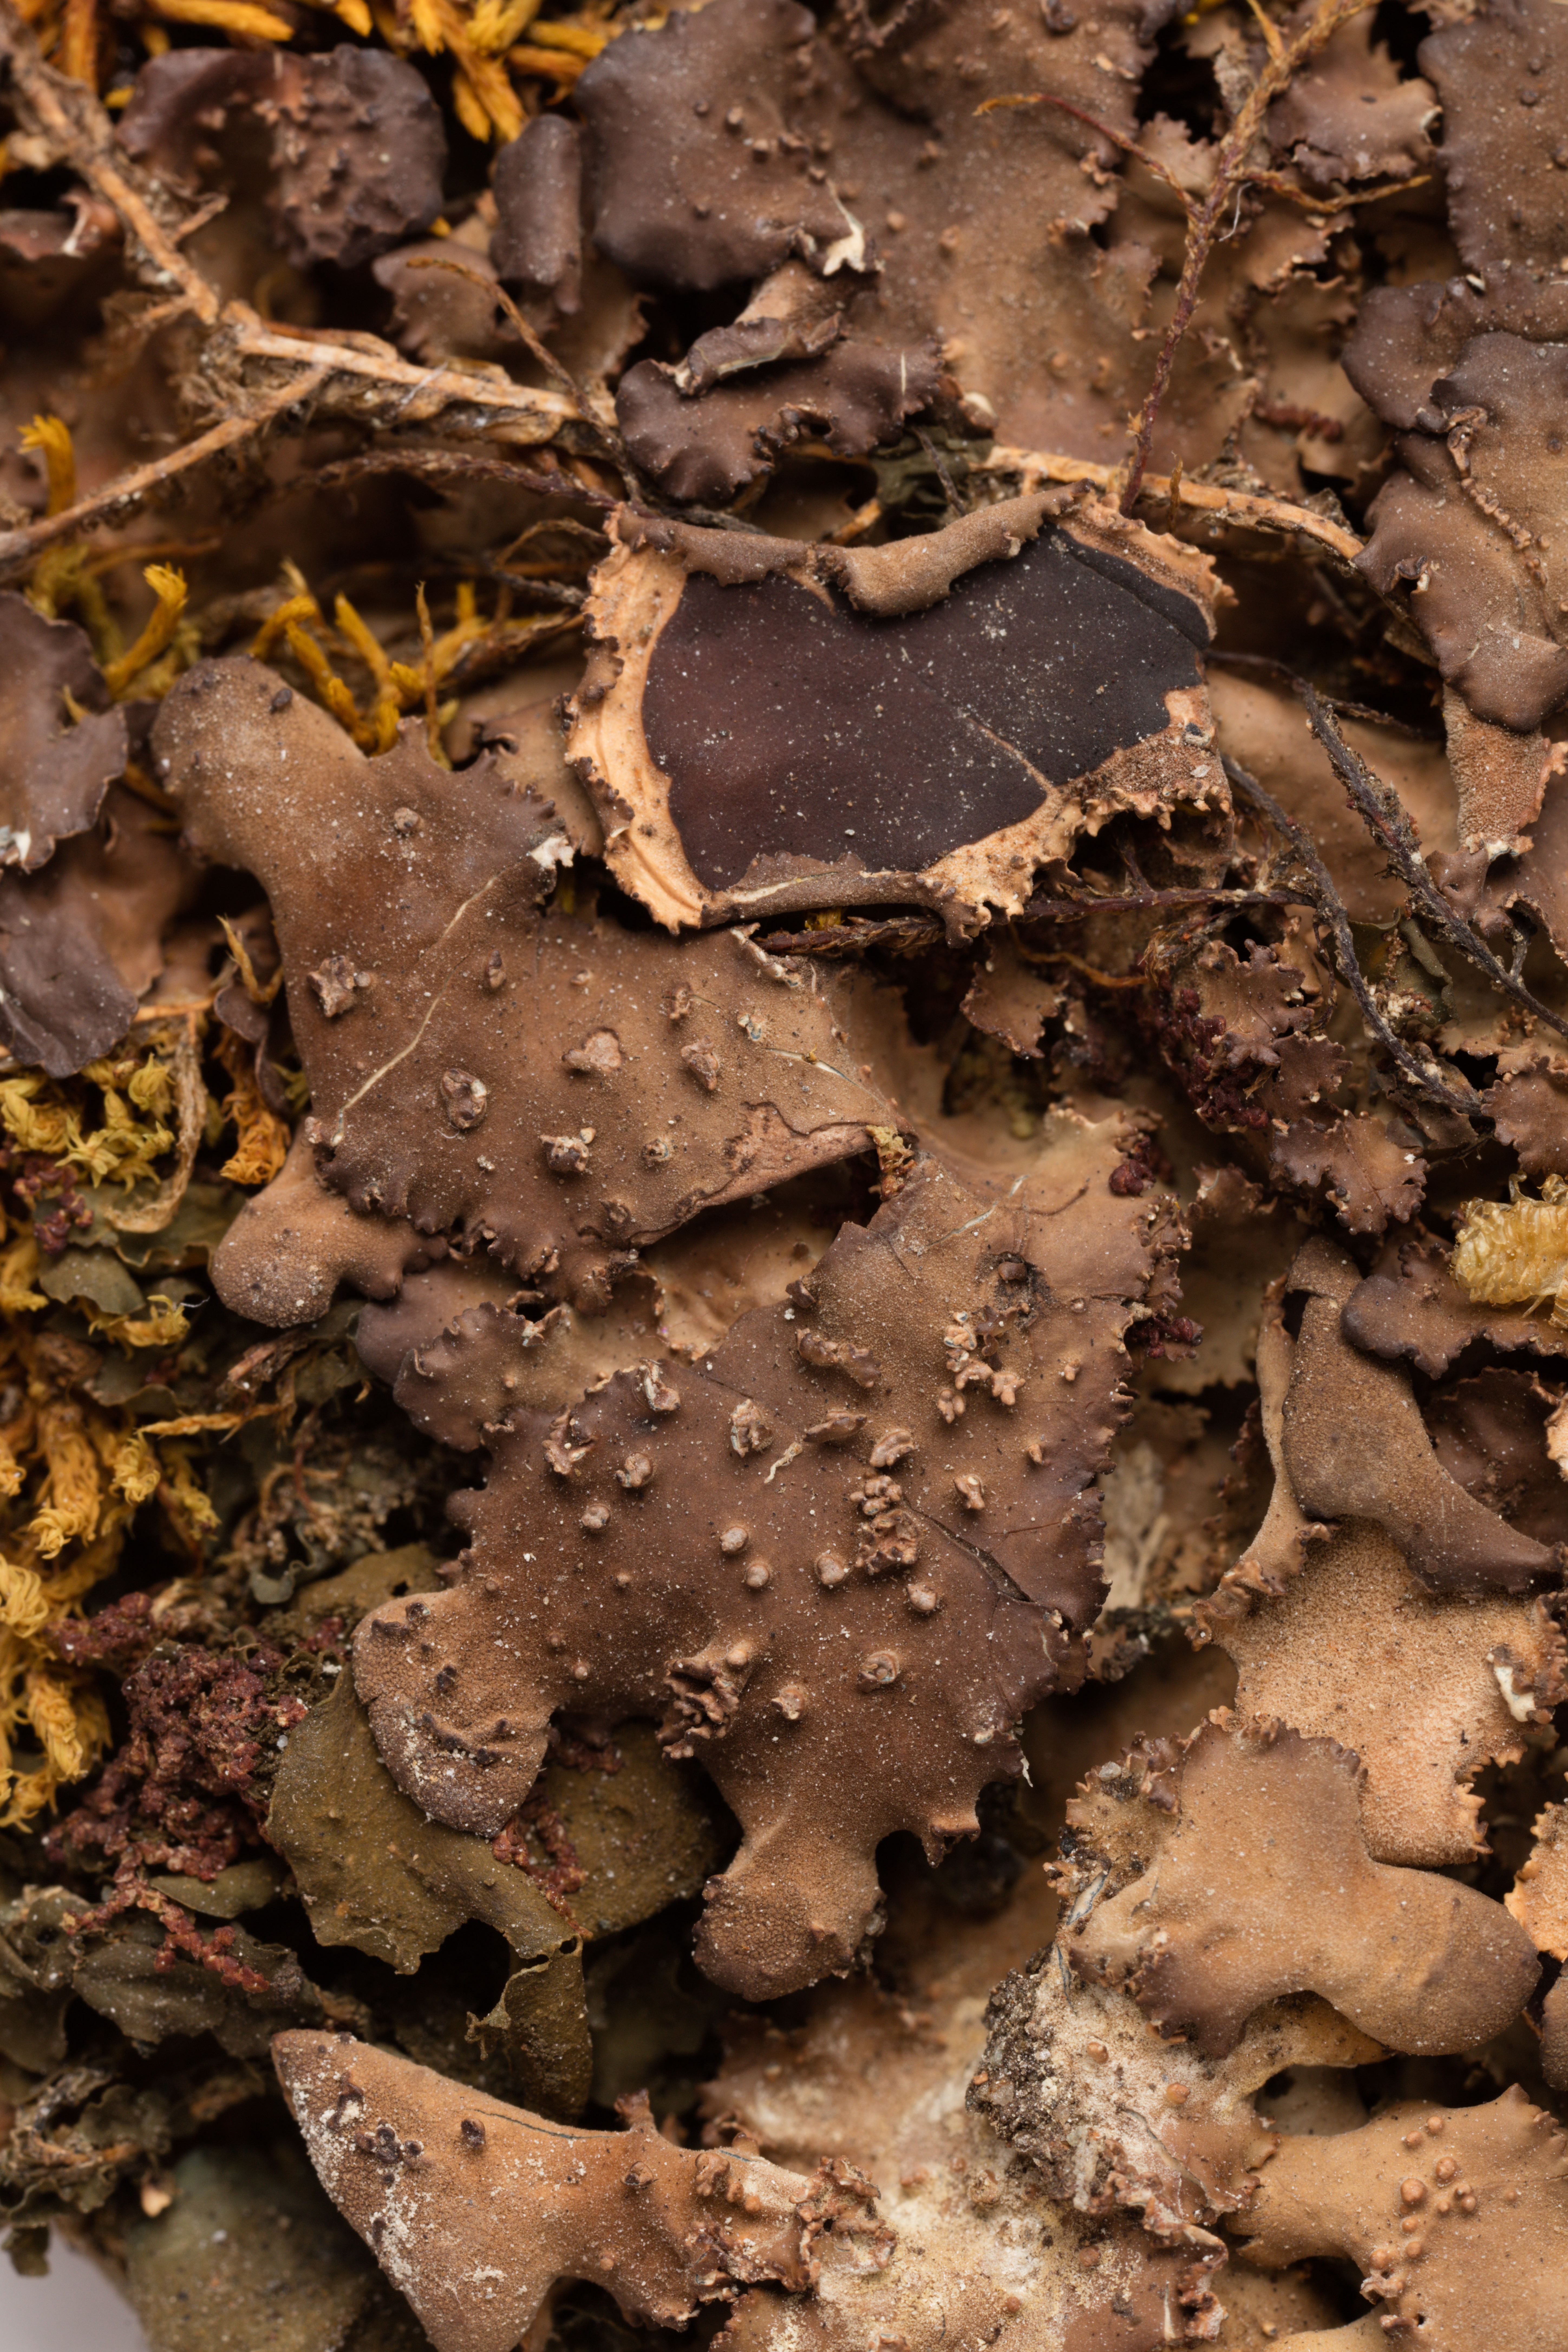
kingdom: Fungi
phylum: Ascomycota
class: Lecanoromycetes
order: Peltigerales
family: Lobariaceae
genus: Sticta
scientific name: Sticta fuliginosa
